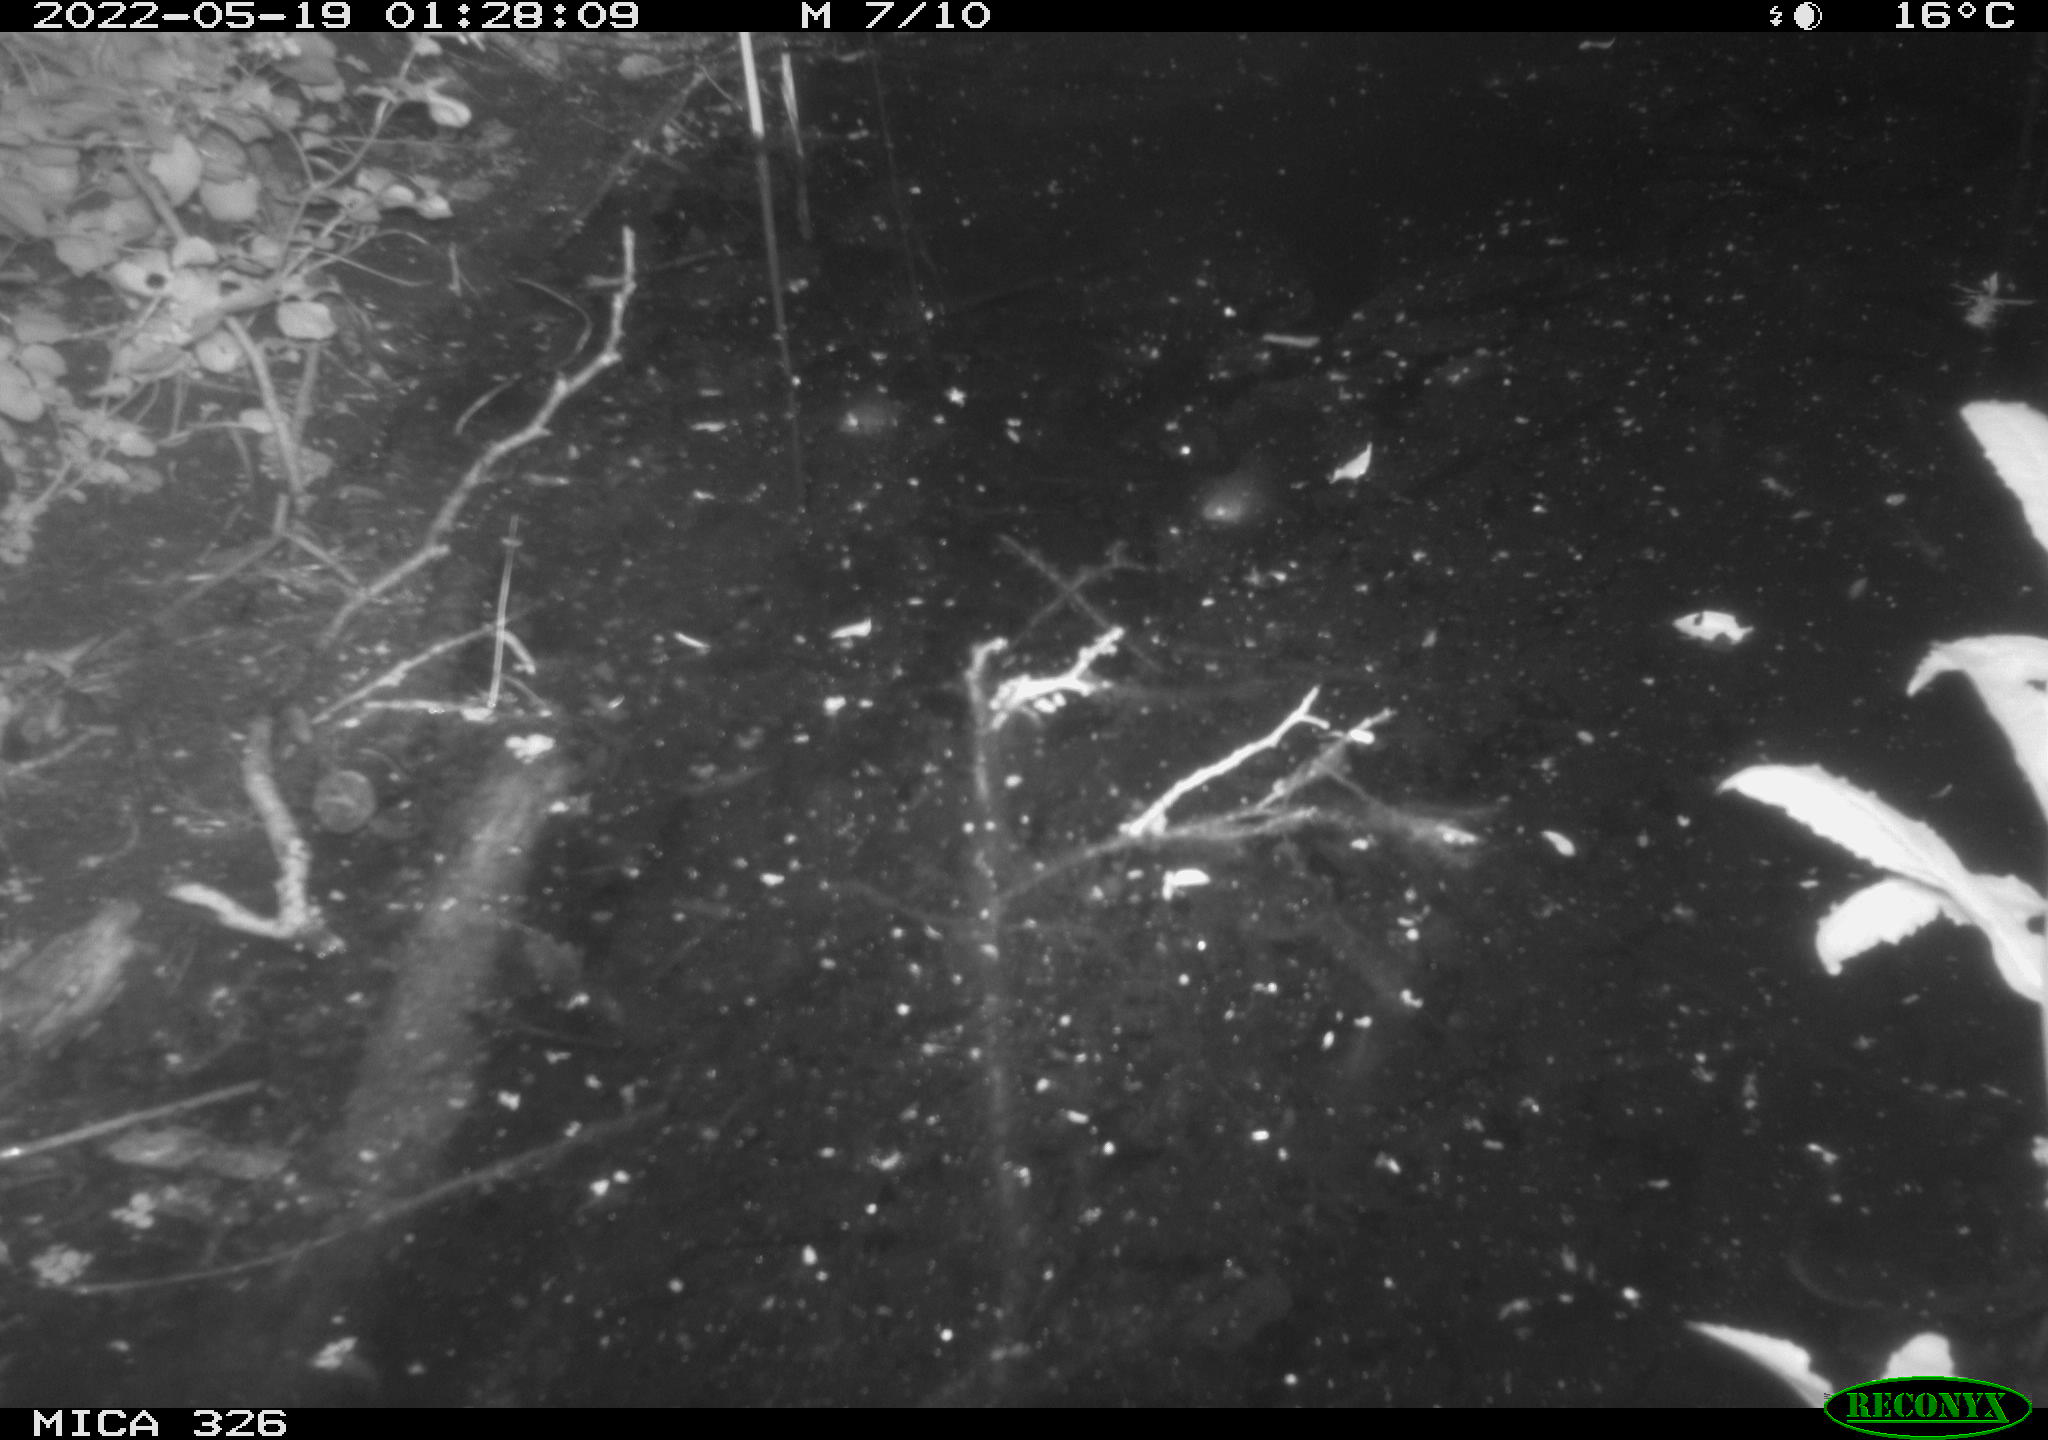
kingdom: Animalia
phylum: Chordata
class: Mammalia
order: Rodentia
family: Muridae
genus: Rattus
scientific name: Rattus norvegicus
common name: Brown rat
